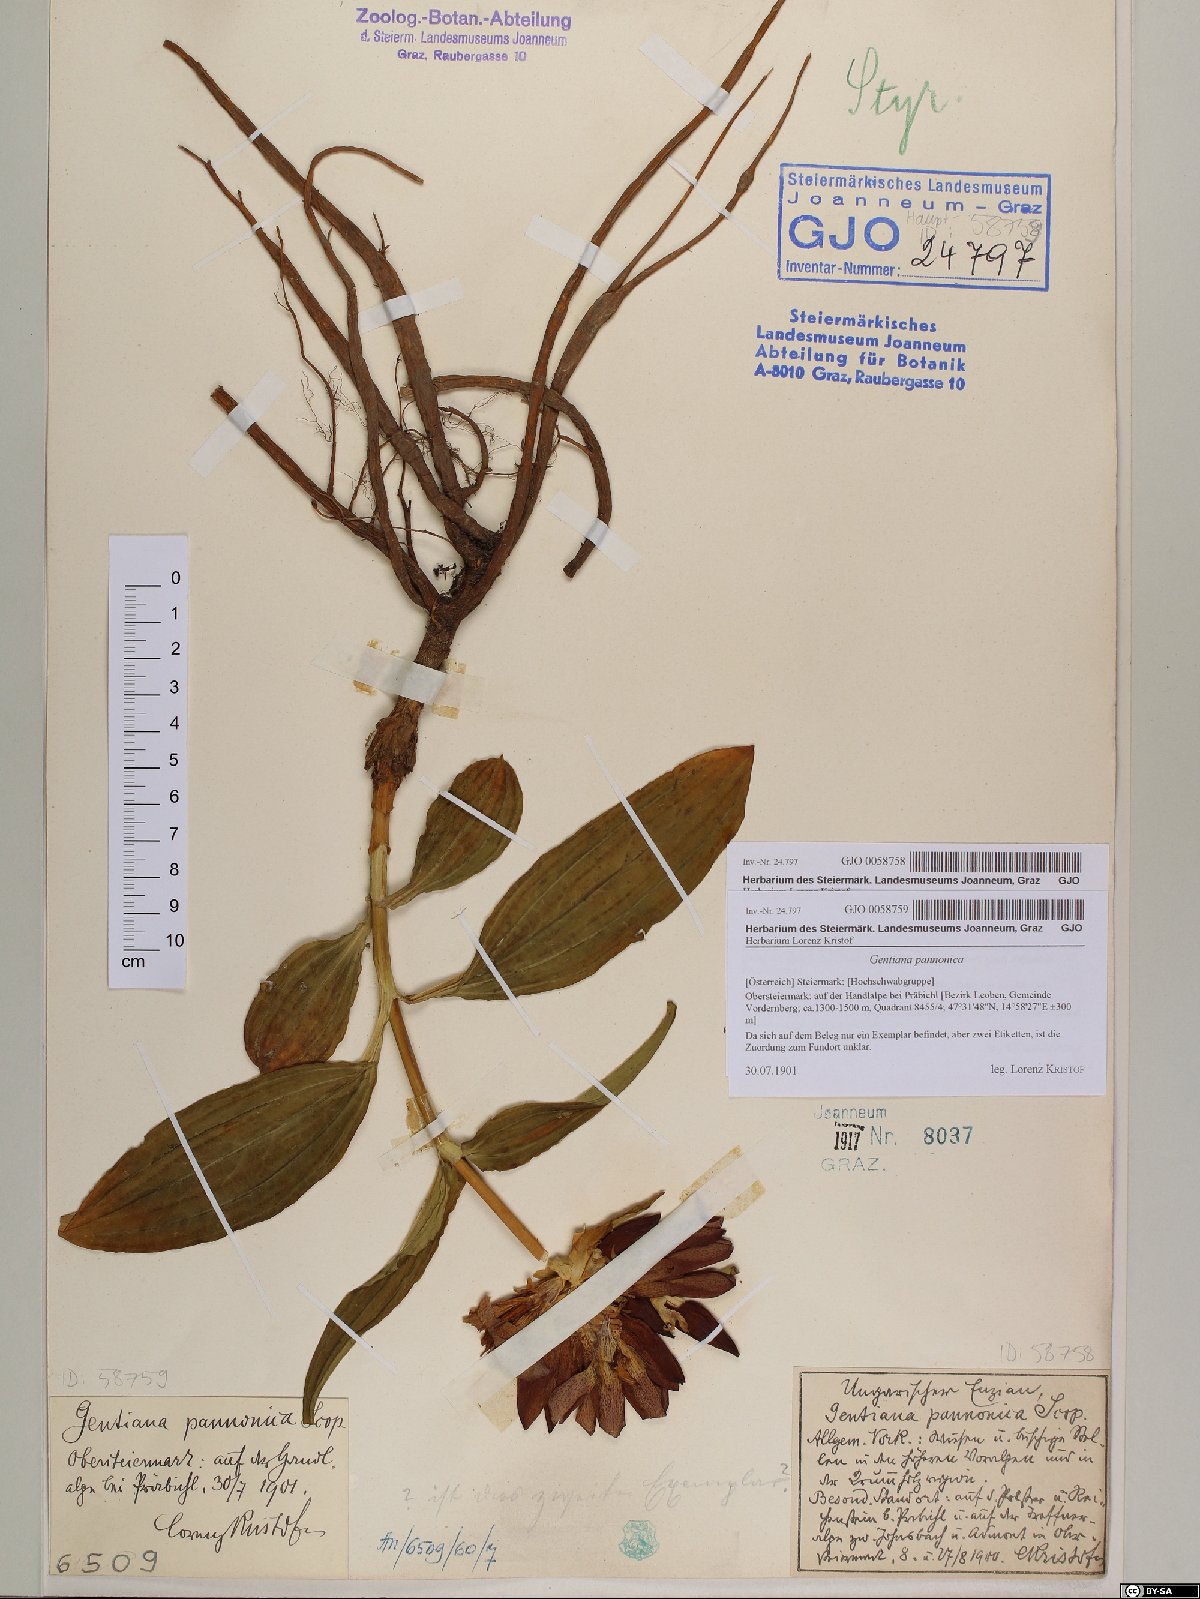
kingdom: Plantae
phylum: Tracheophyta
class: Magnoliopsida
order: Gentianales
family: Gentianaceae
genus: Gentiana
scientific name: Gentiana pannonica
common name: Hungarian gentian
